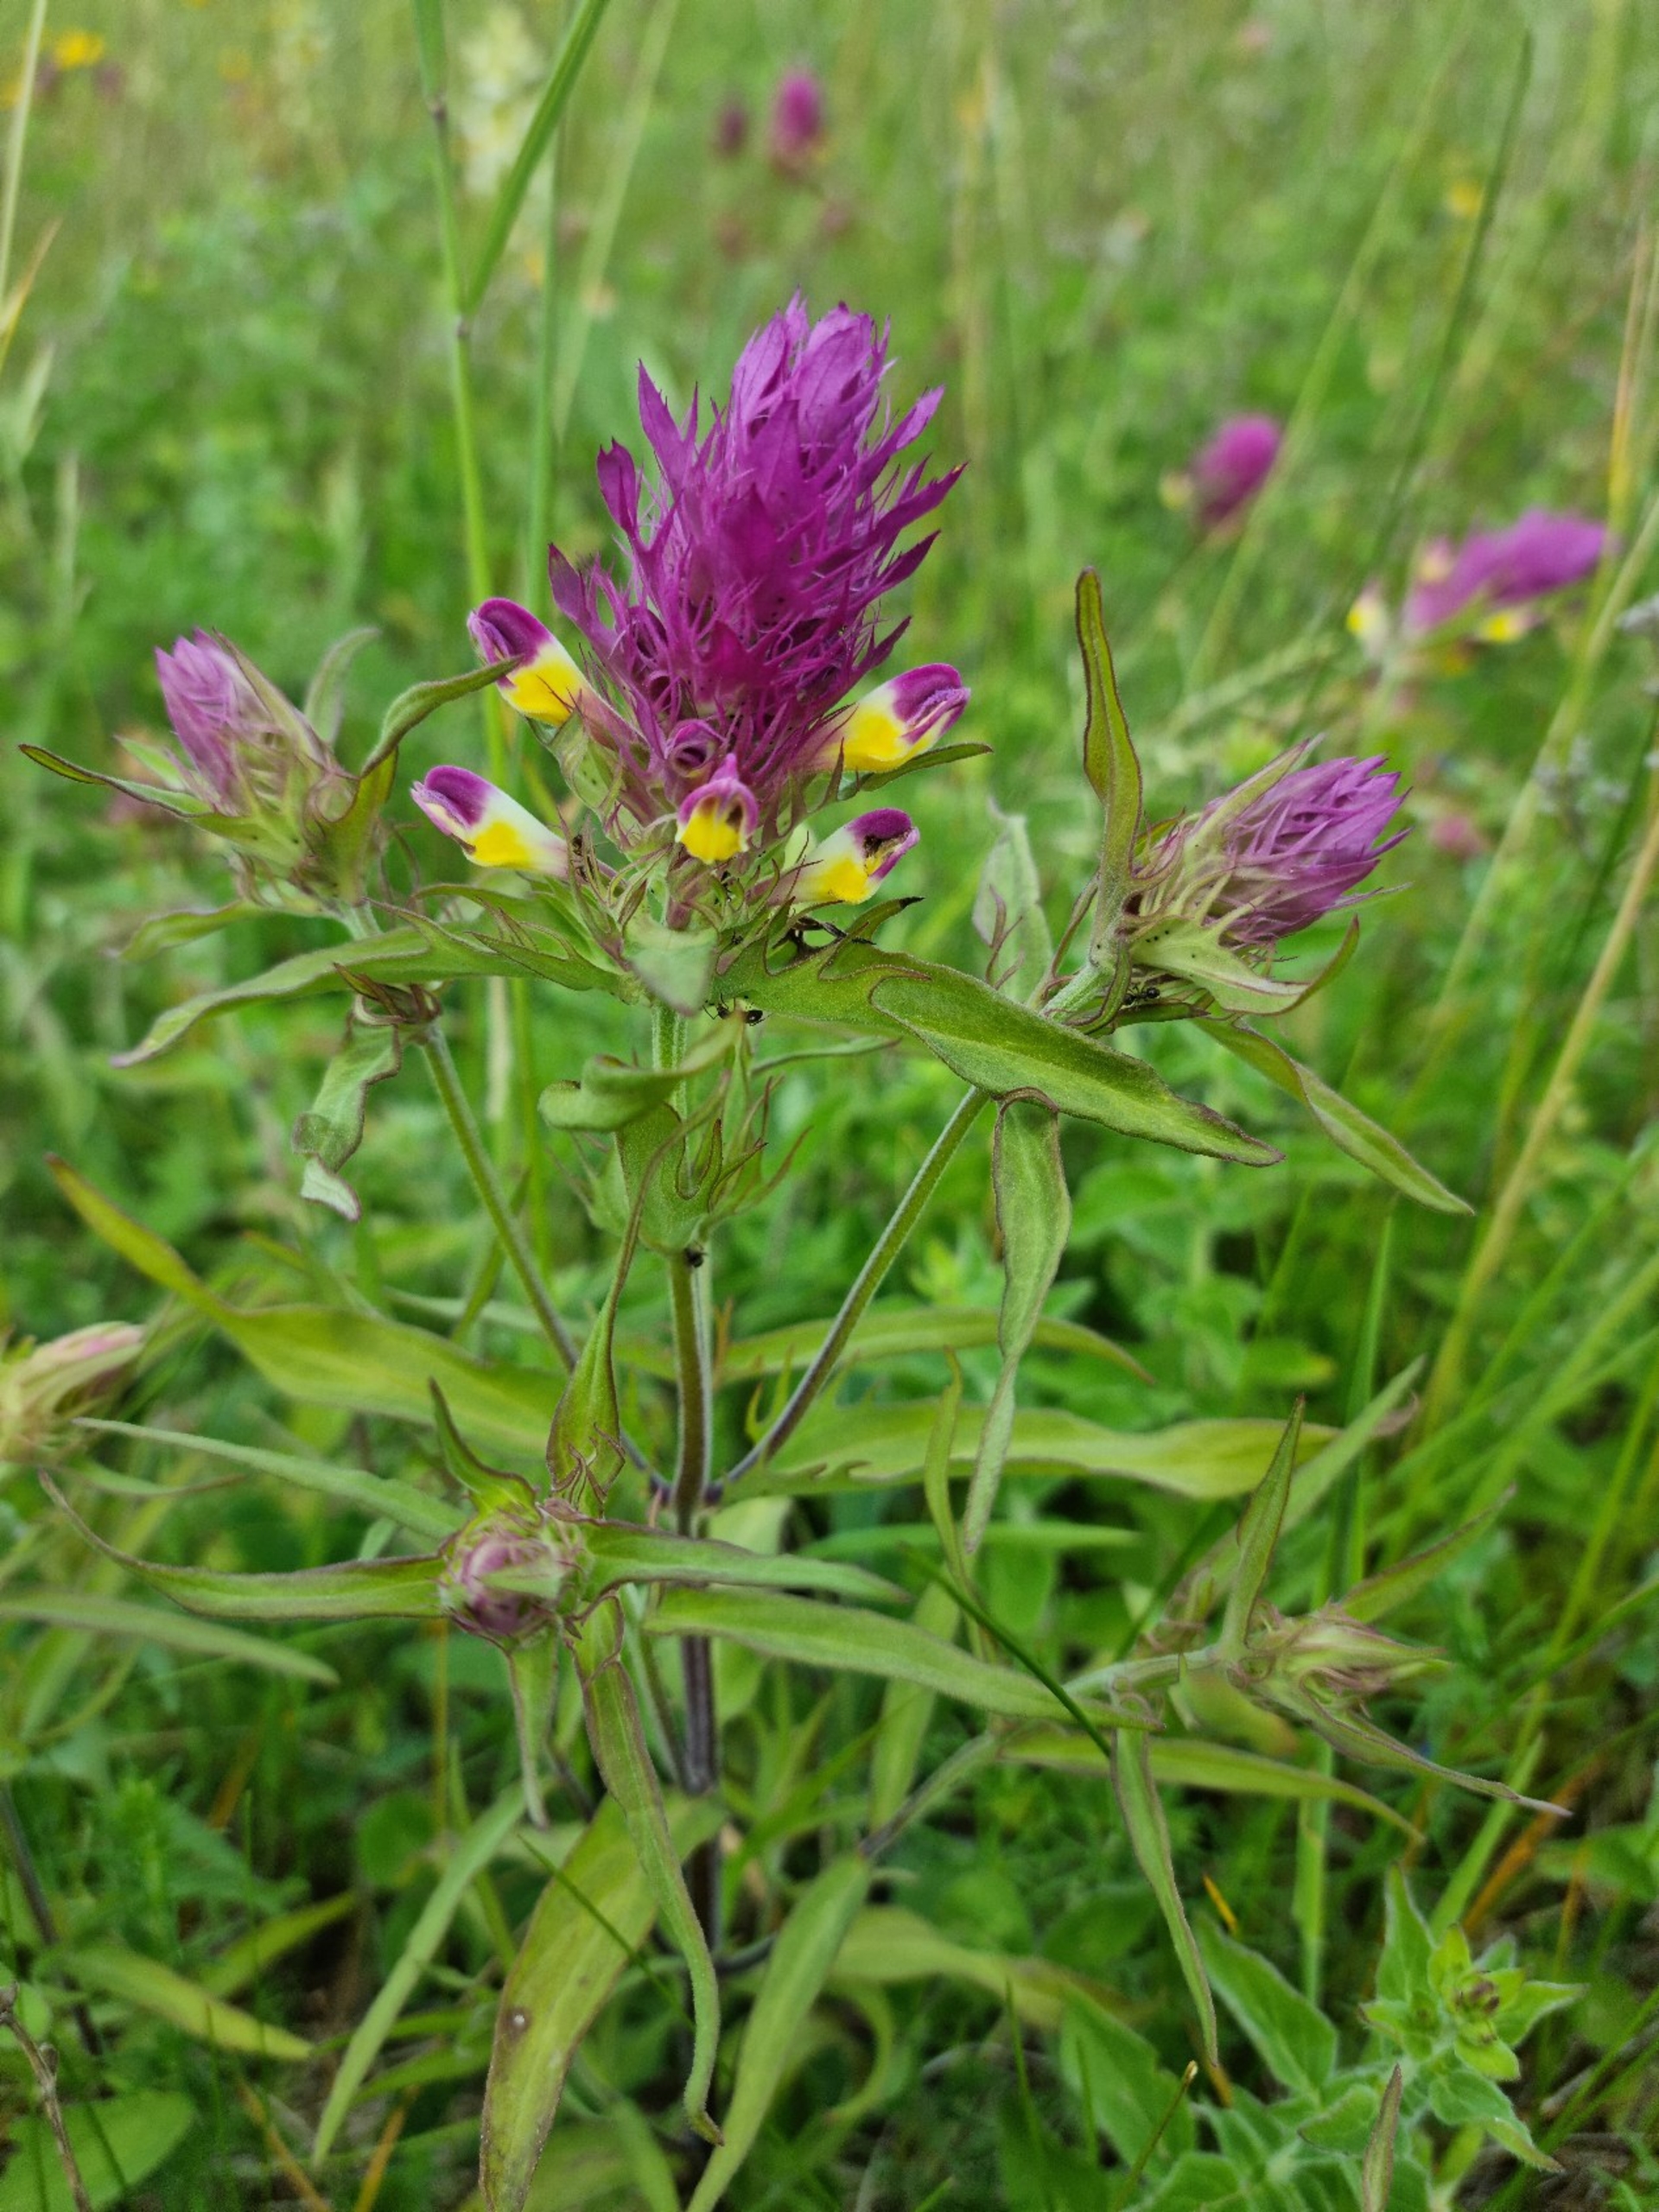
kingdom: Plantae
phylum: Tracheophyta
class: Magnoliopsida
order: Lamiales
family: Orobanchaceae
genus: Melampyrum
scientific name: Melampyrum arvense
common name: Ager-kohvede
